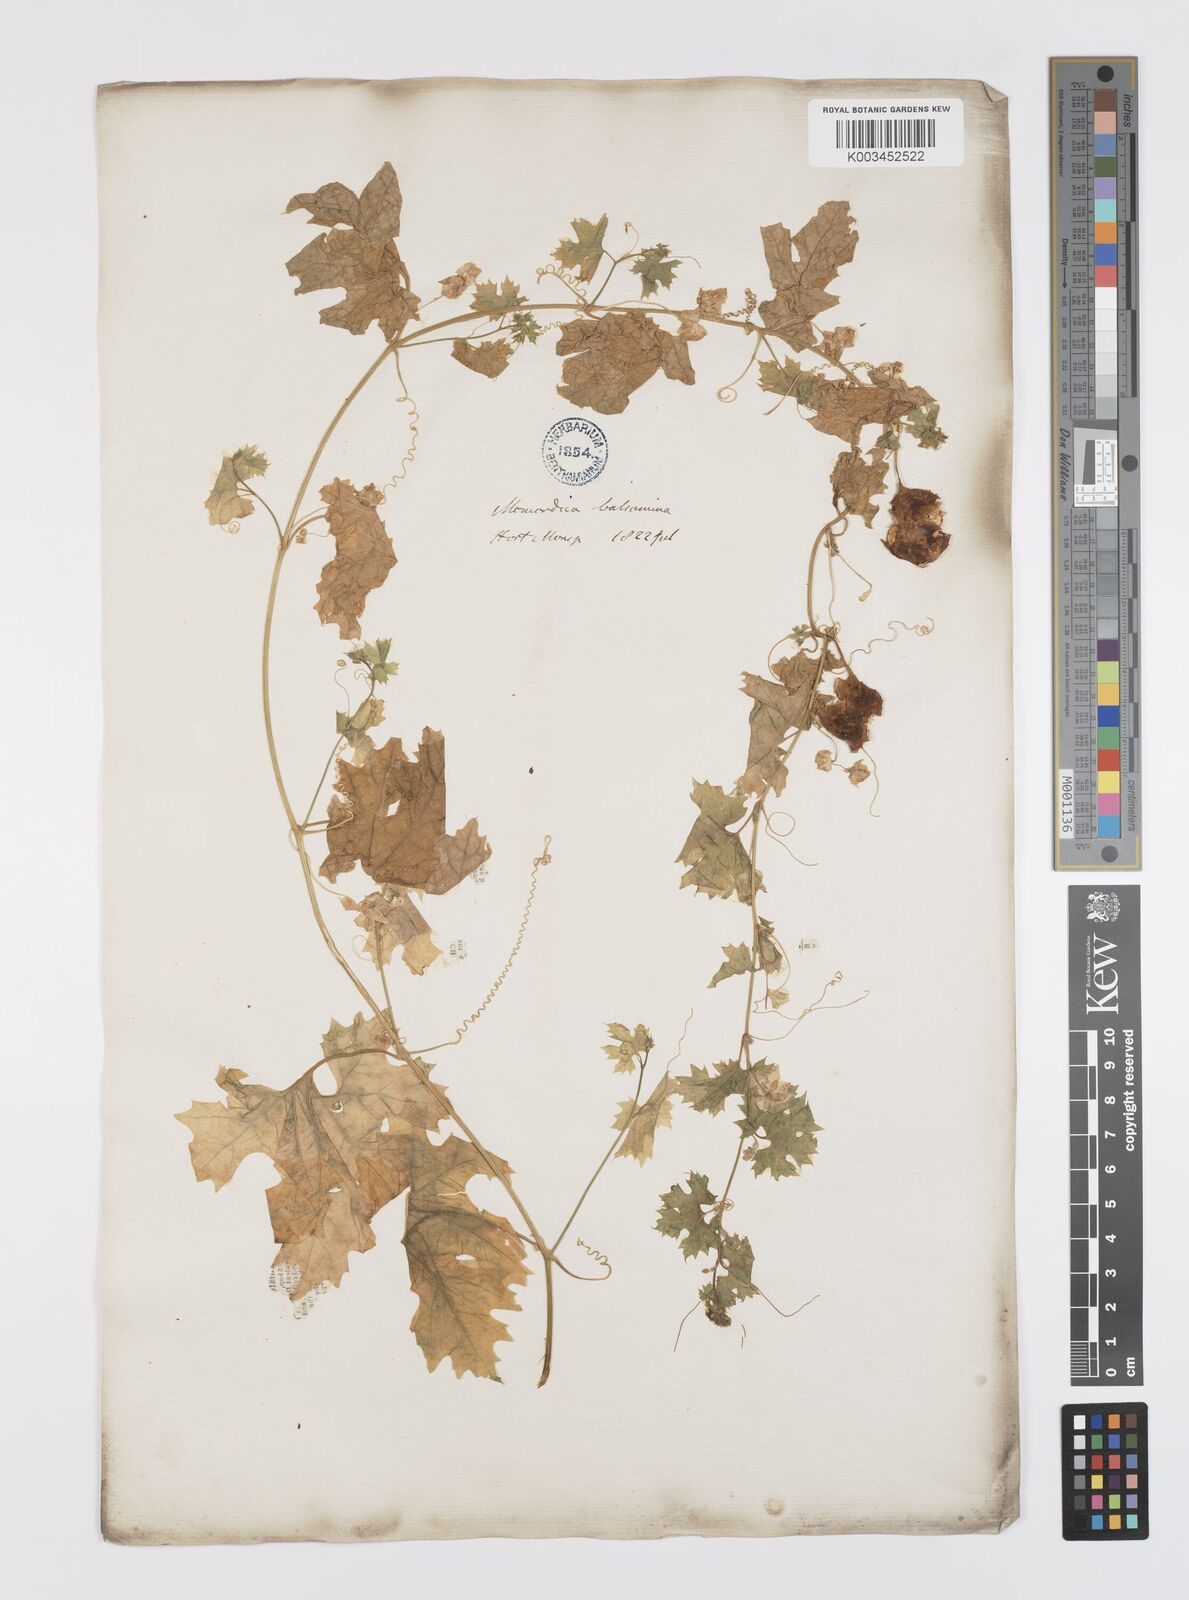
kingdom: Plantae
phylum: Tracheophyta
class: Magnoliopsida
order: Cucurbitales
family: Cucurbitaceae
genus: Momordica
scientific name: Momordica balsamina
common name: Southern balsampear
